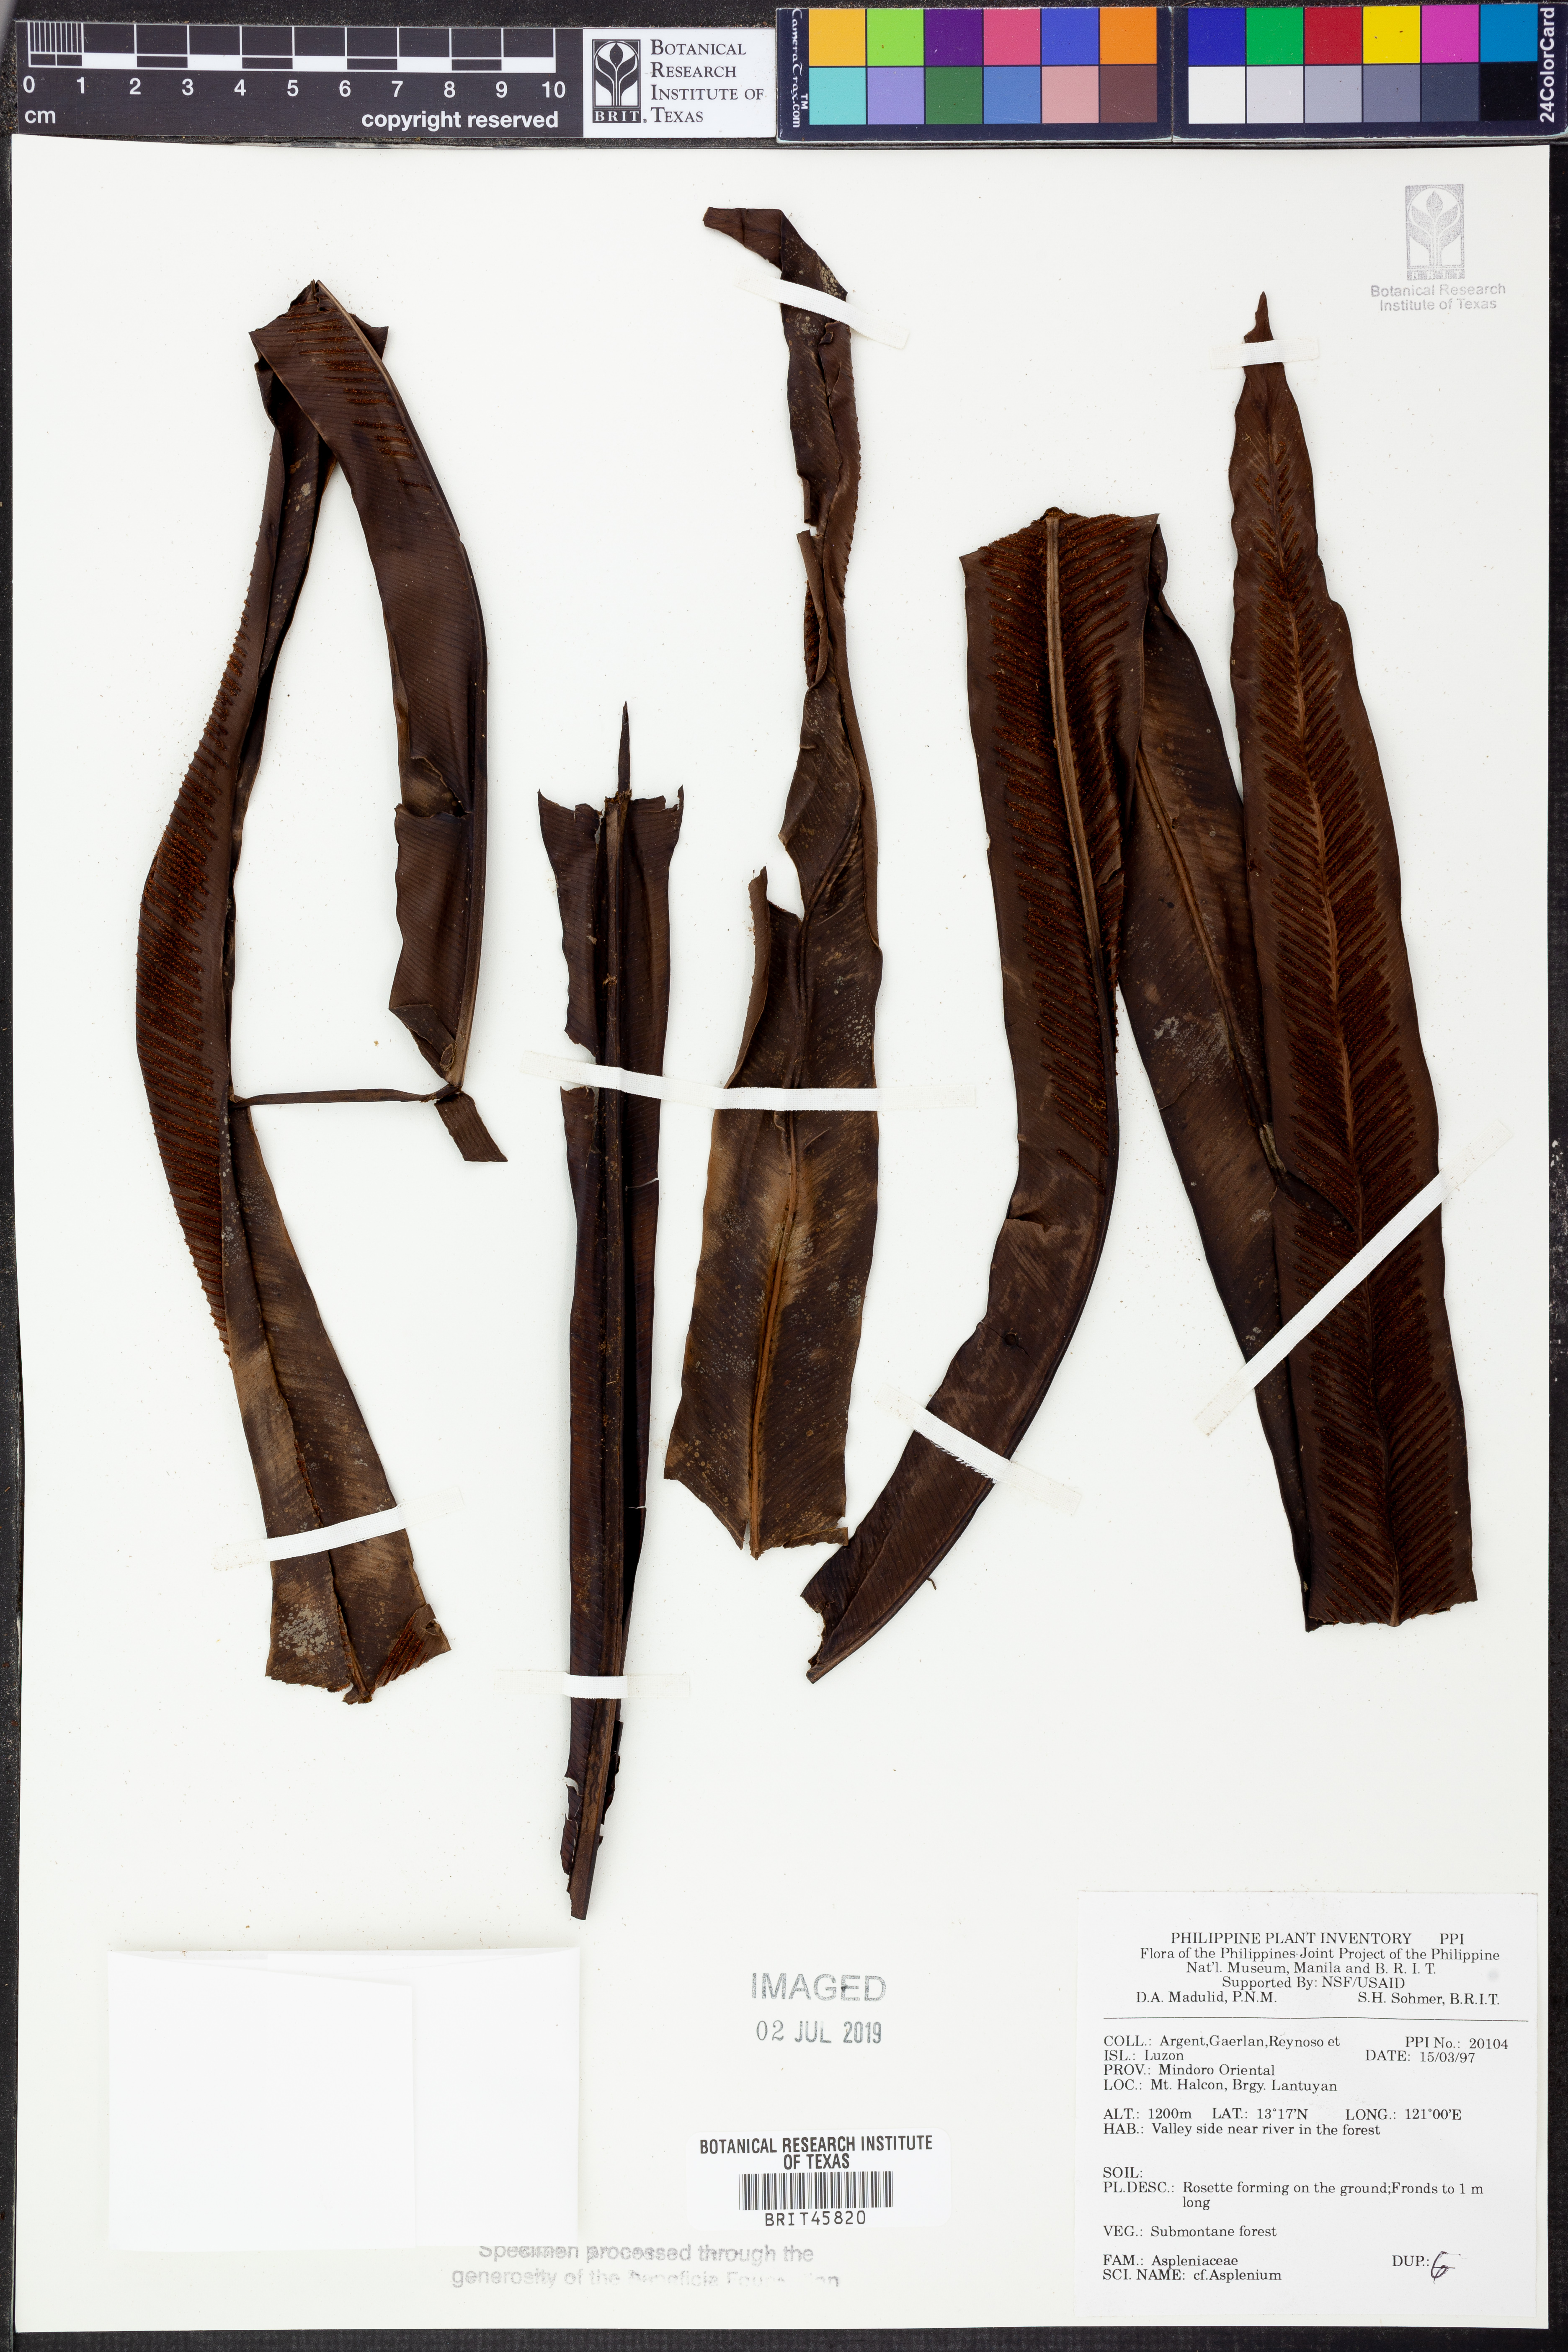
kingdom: Plantae
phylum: Tracheophyta
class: Polypodiopsida
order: Polypodiales
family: Aspleniaceae
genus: Asplenium
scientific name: Asplenium
